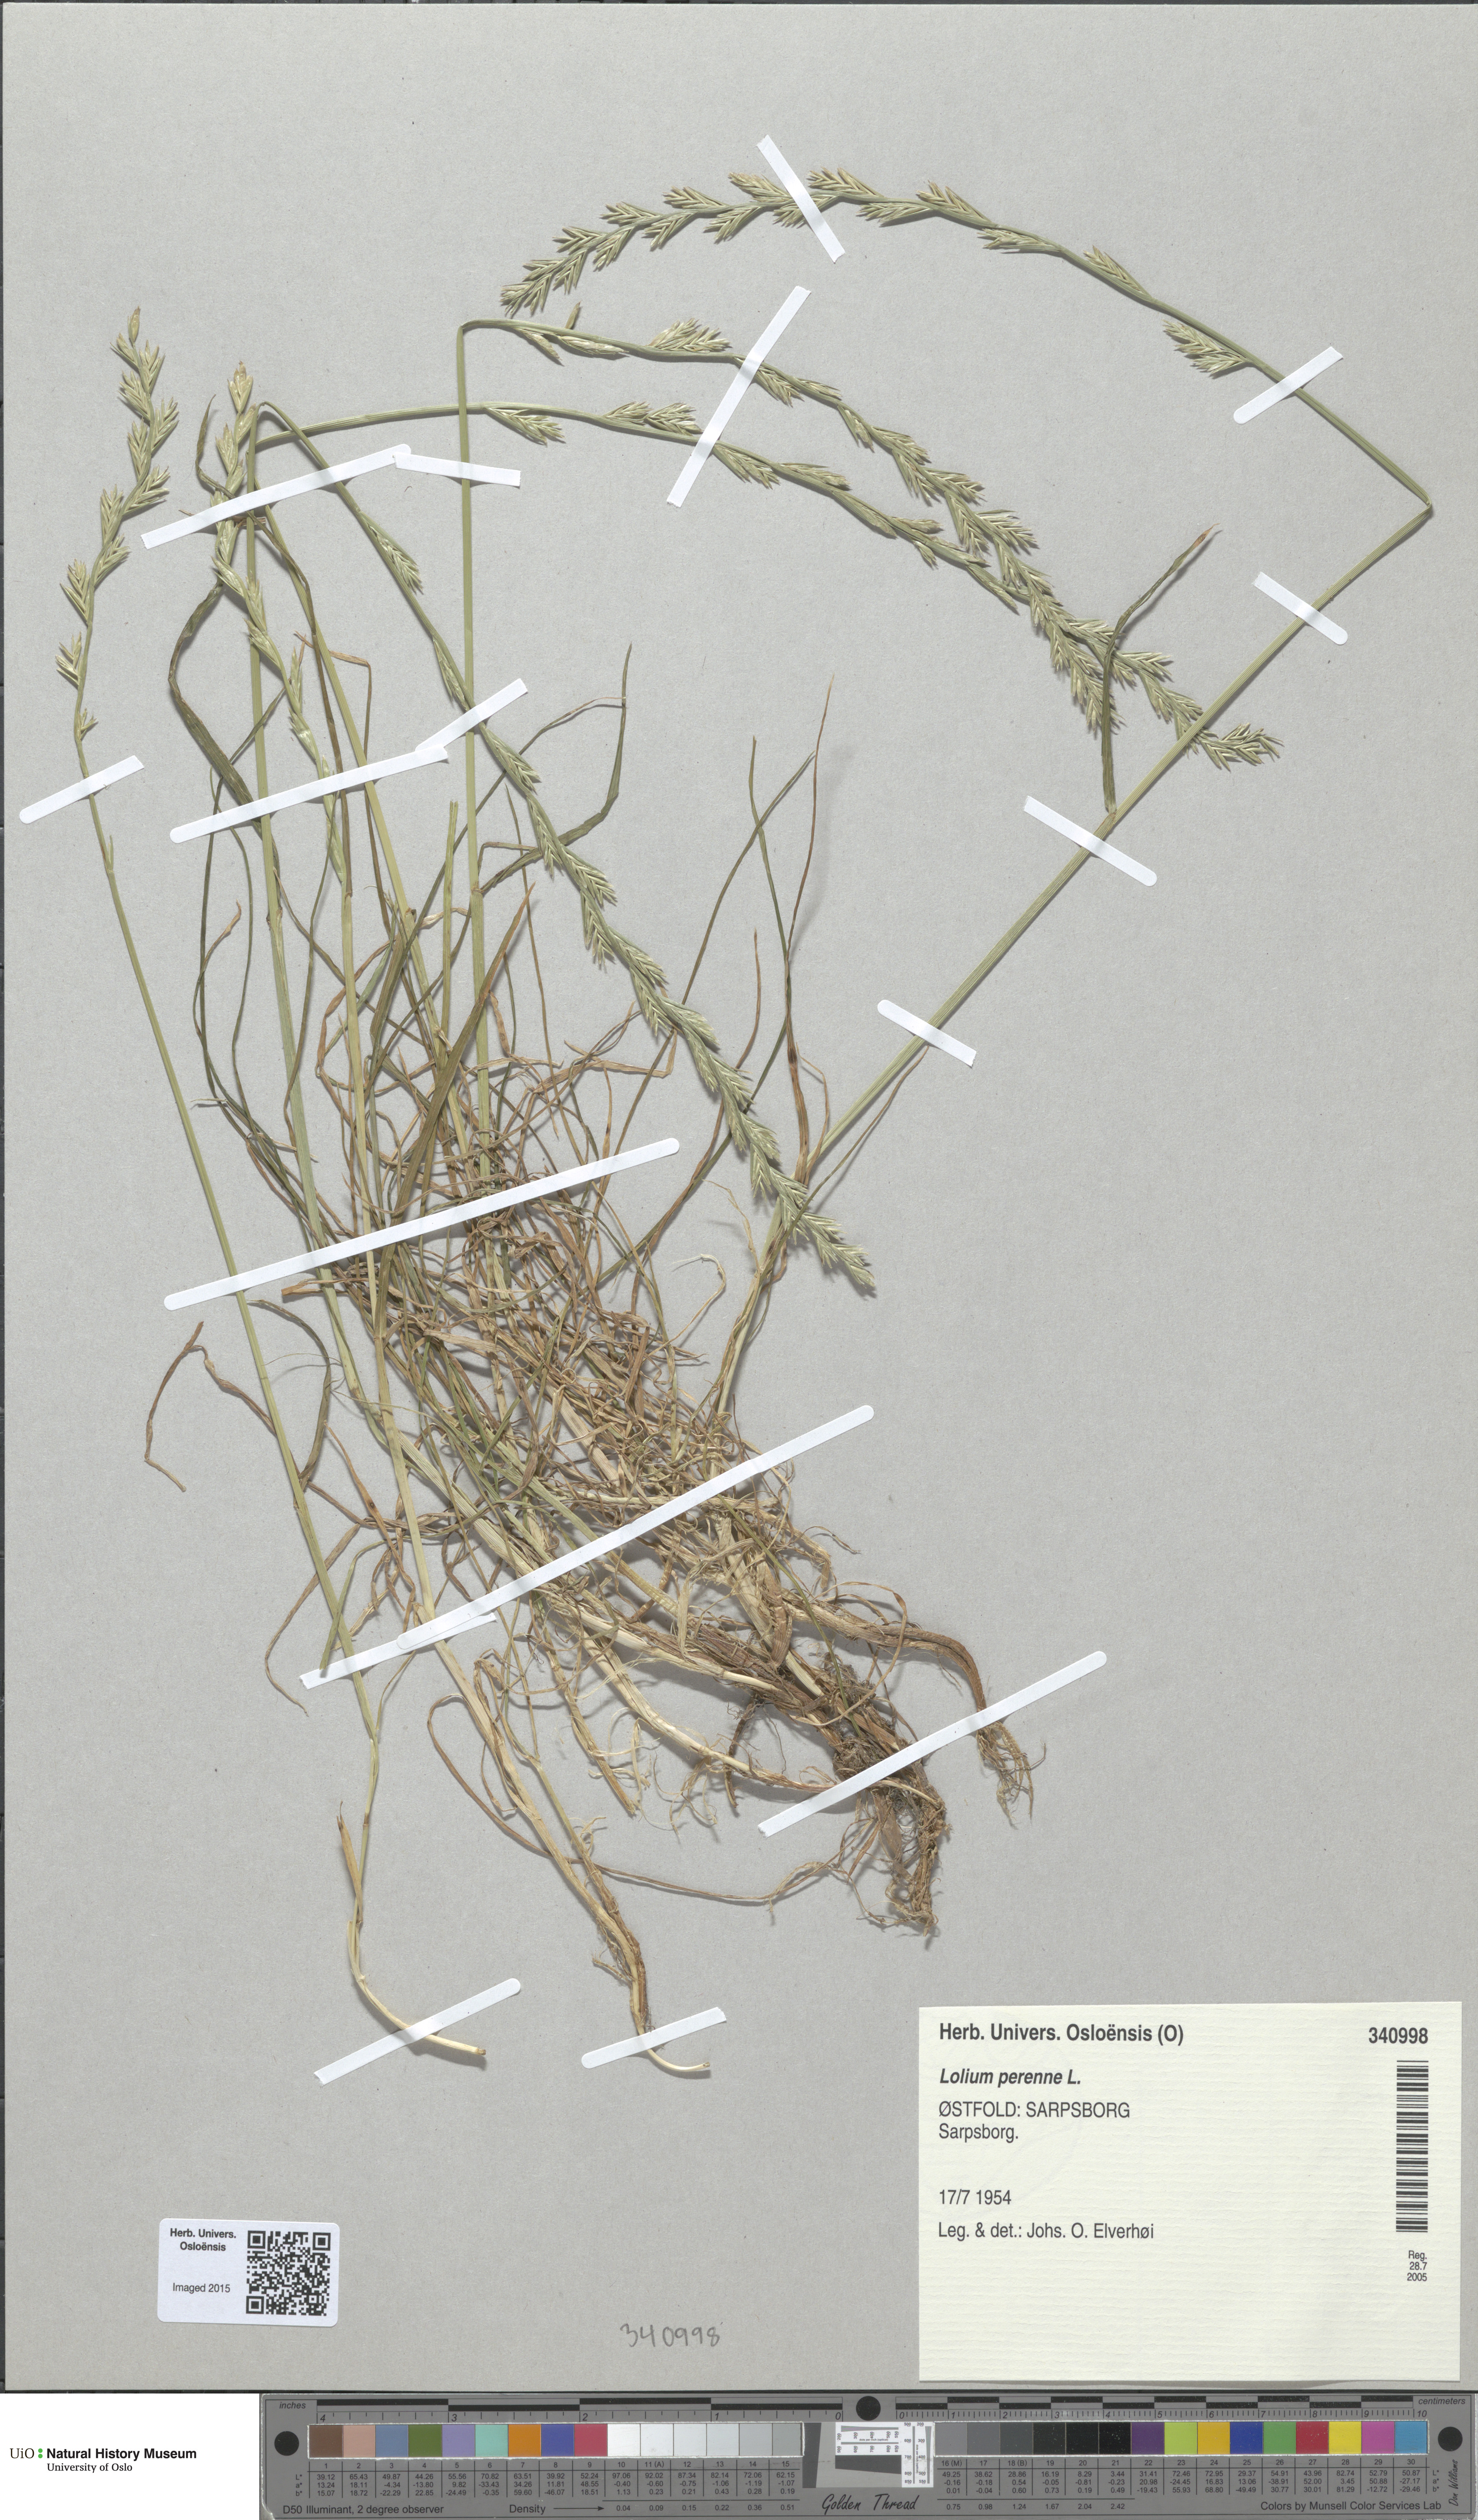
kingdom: Plantae
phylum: Tracheophyta
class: Liliopsida
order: Poales
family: Poaceae
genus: Lolium
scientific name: Lolium perenne
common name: Perennial ryegrass
